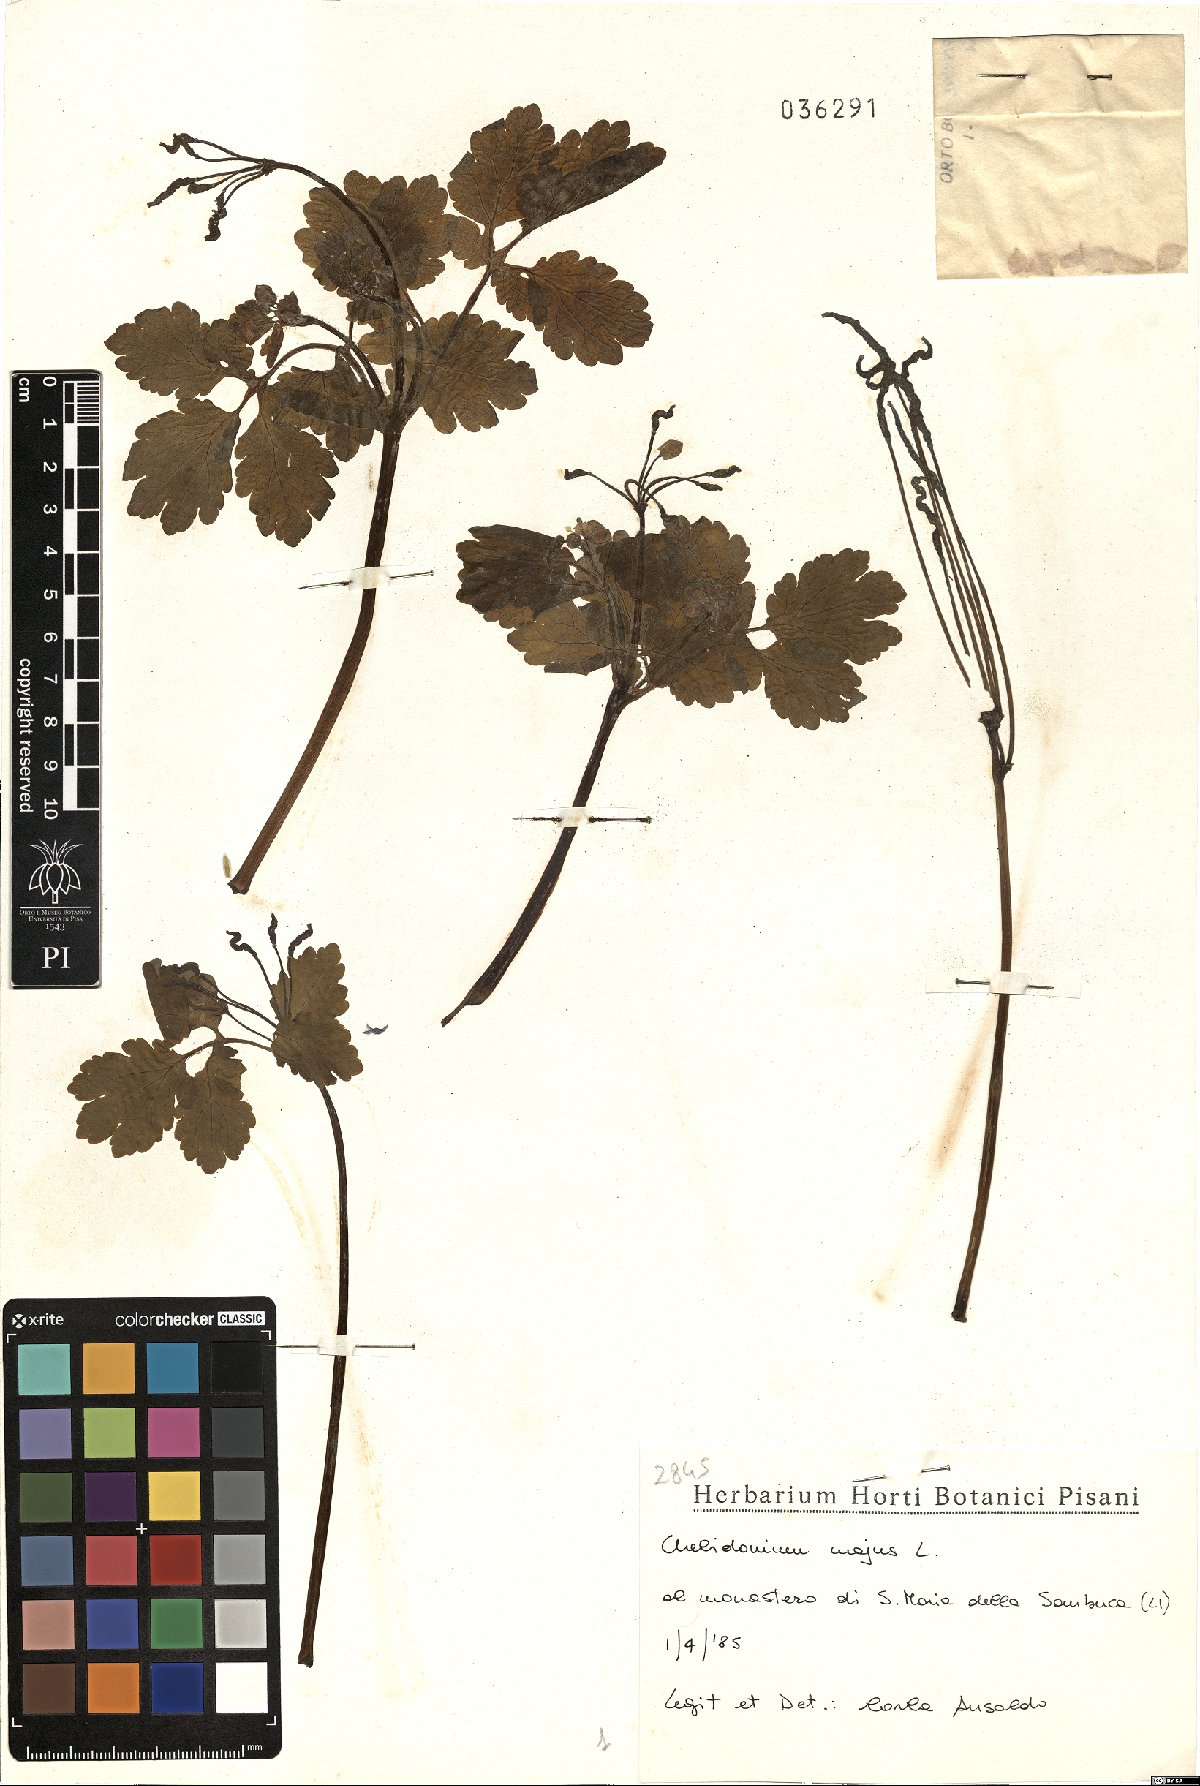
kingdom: Plantae
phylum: Tracheophyta
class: Magnoliopsida
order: Ranunculales
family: Papaveraceae
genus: Chelidonium
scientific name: Chelidonium majus
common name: Greater celandine
